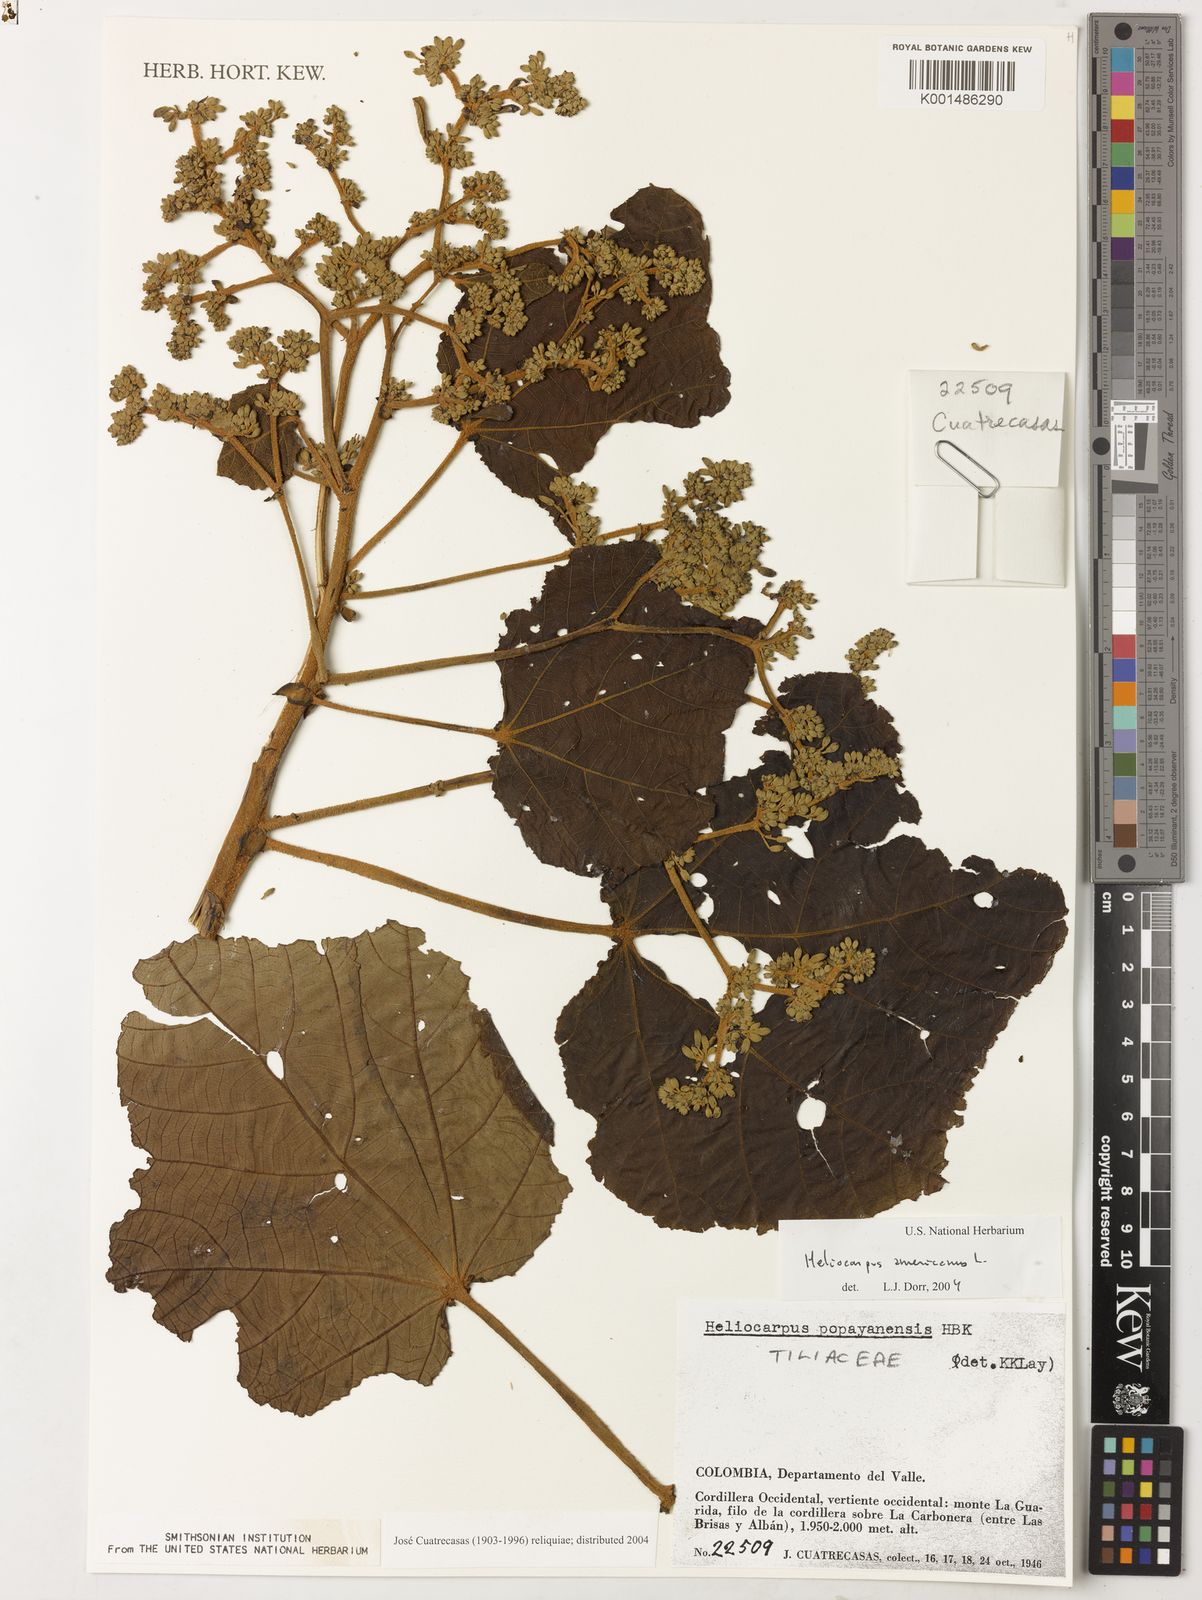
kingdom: Plantae
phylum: Tracheophyta
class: Magnoliopsida
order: Malvales
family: Malvaceae
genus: Heliocarpus
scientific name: Heliocarpus americanus
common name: White moho
